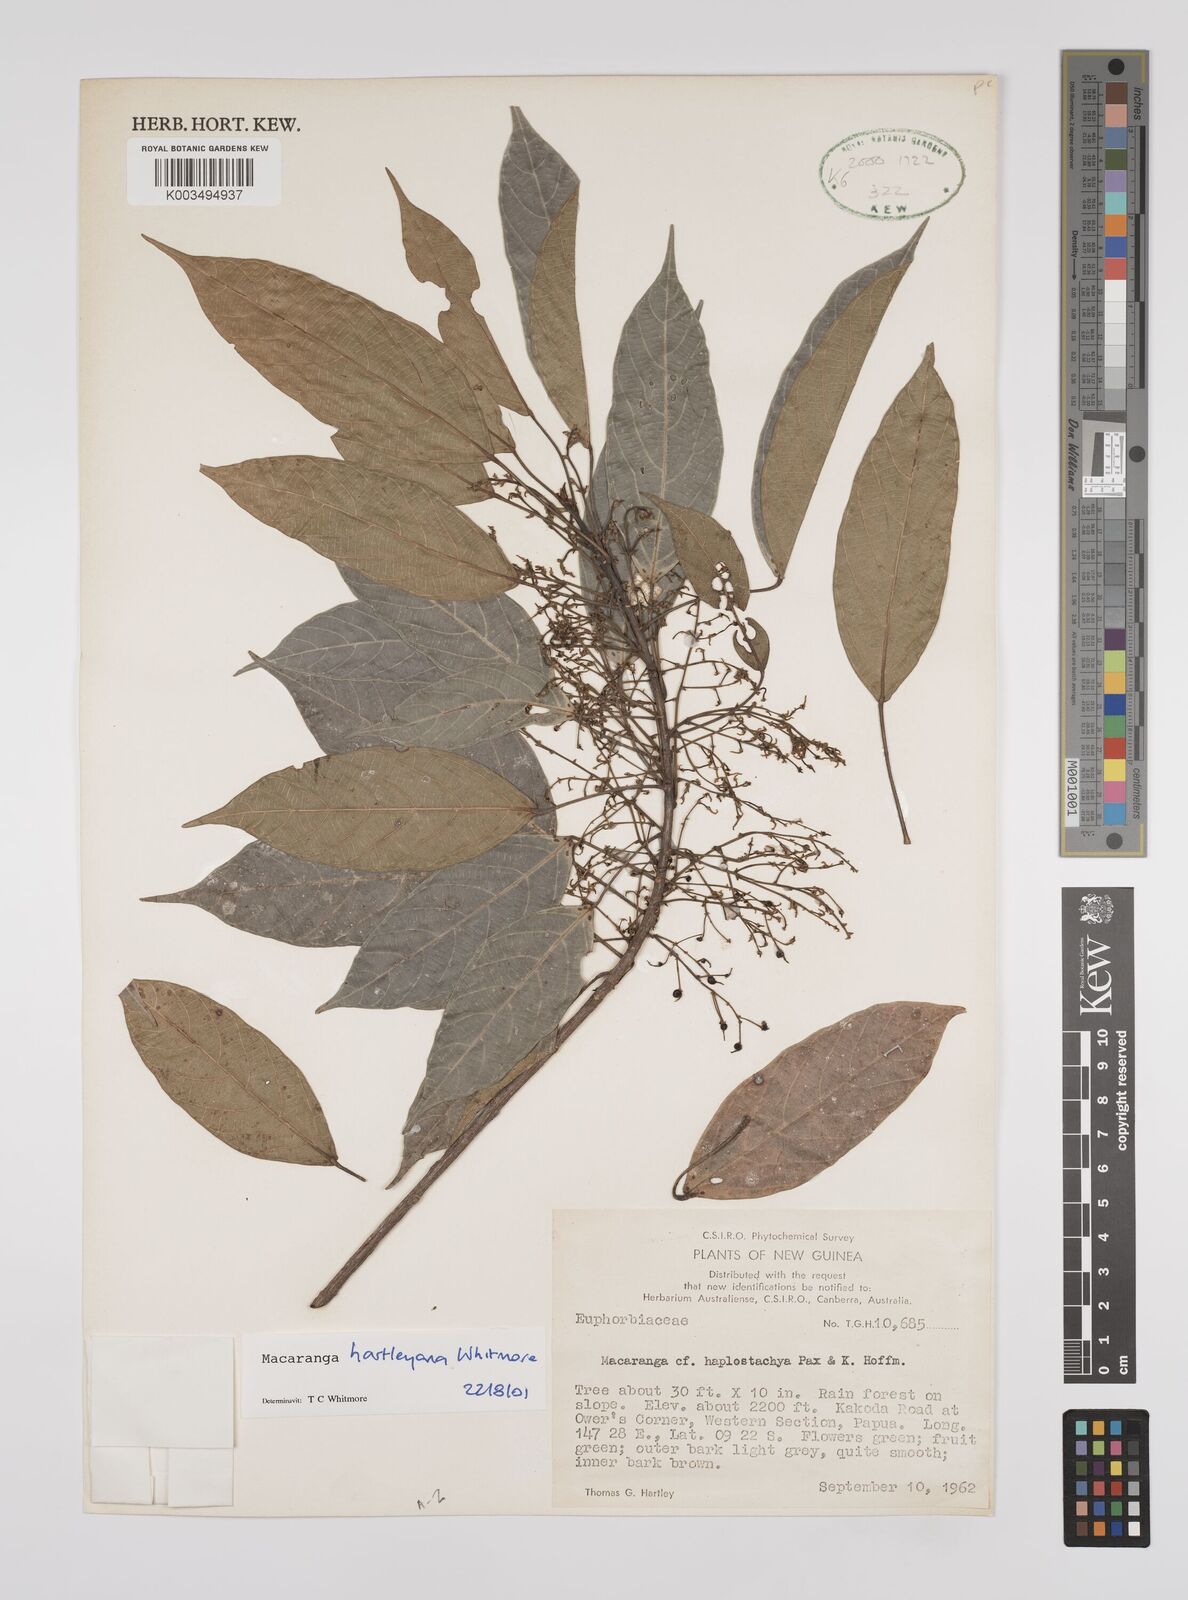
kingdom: Plantae
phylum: Tracheophyta
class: Magnoliopsida
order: Malpighiales
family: Euphorbiaceae
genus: Macaranga
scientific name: Macaranga hartleyana
